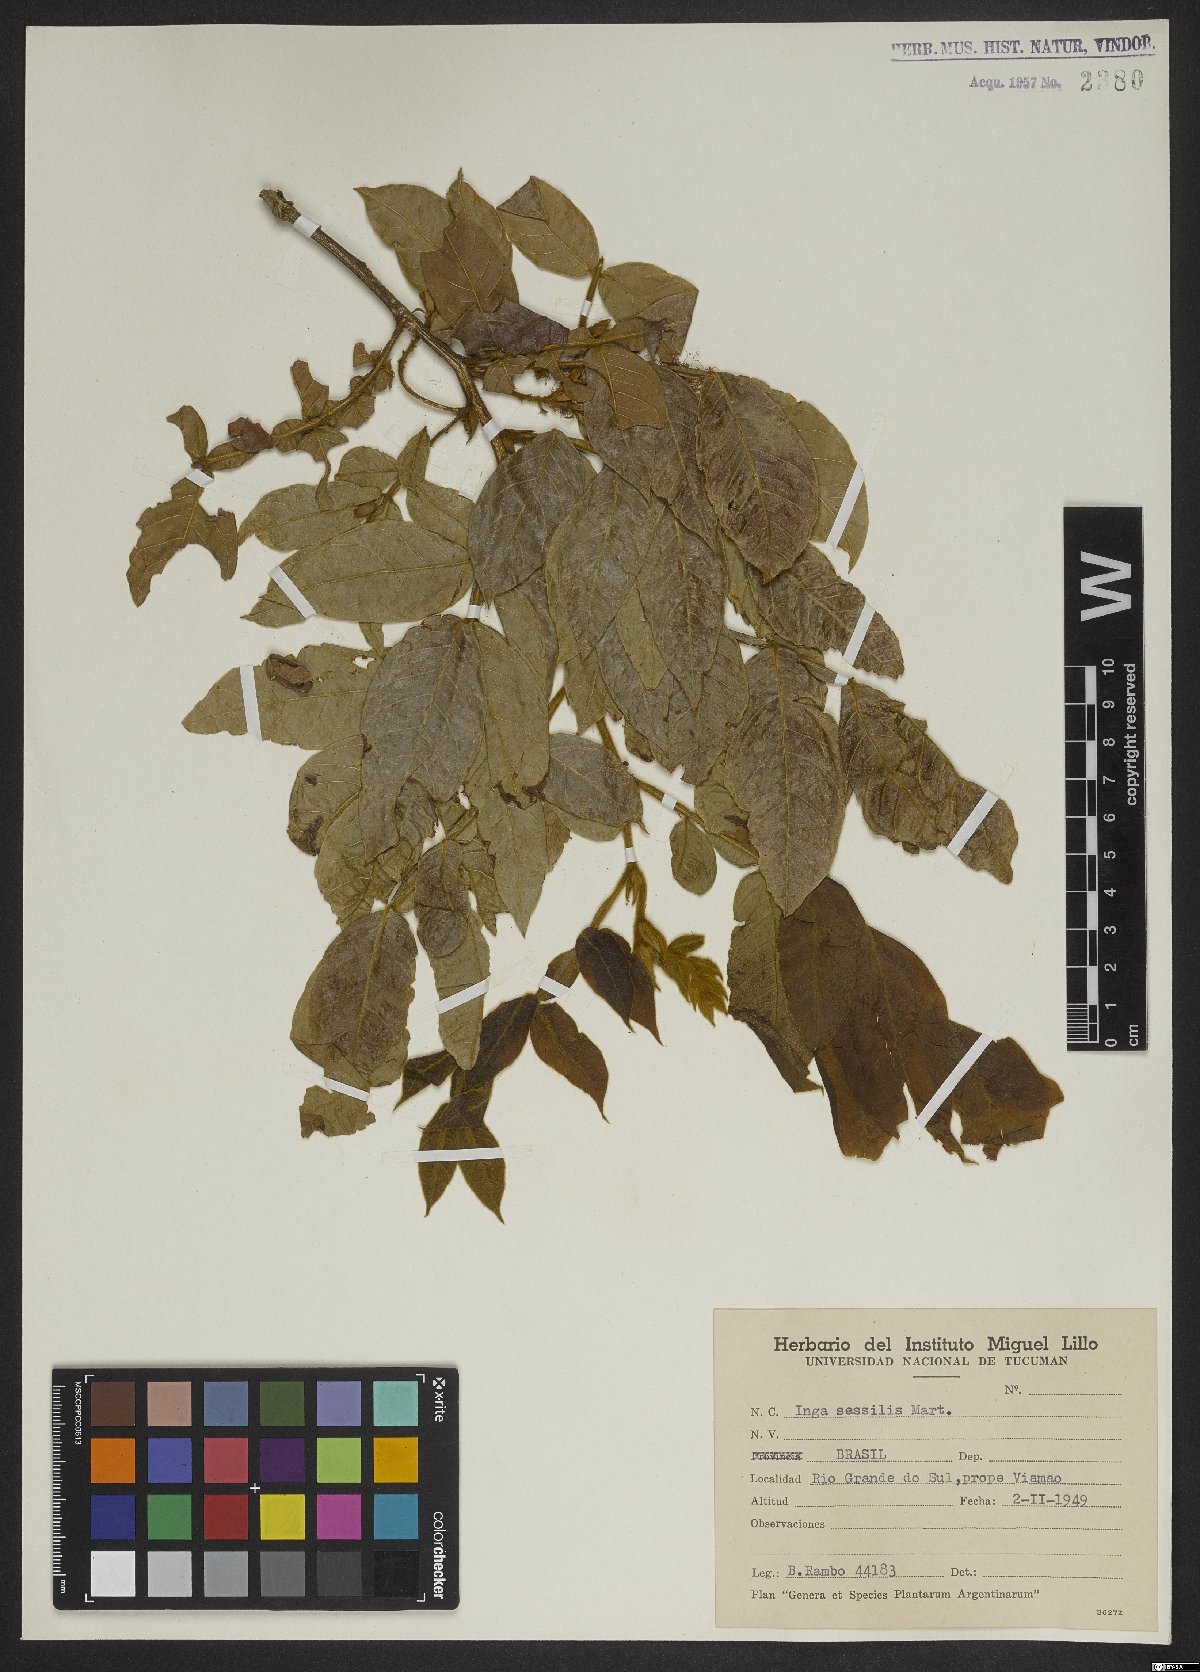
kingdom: Plantae
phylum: Tracheophyta
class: Magnoliopsida
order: Fabales
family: Fabaceae
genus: Inga
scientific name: Inga sessilis
